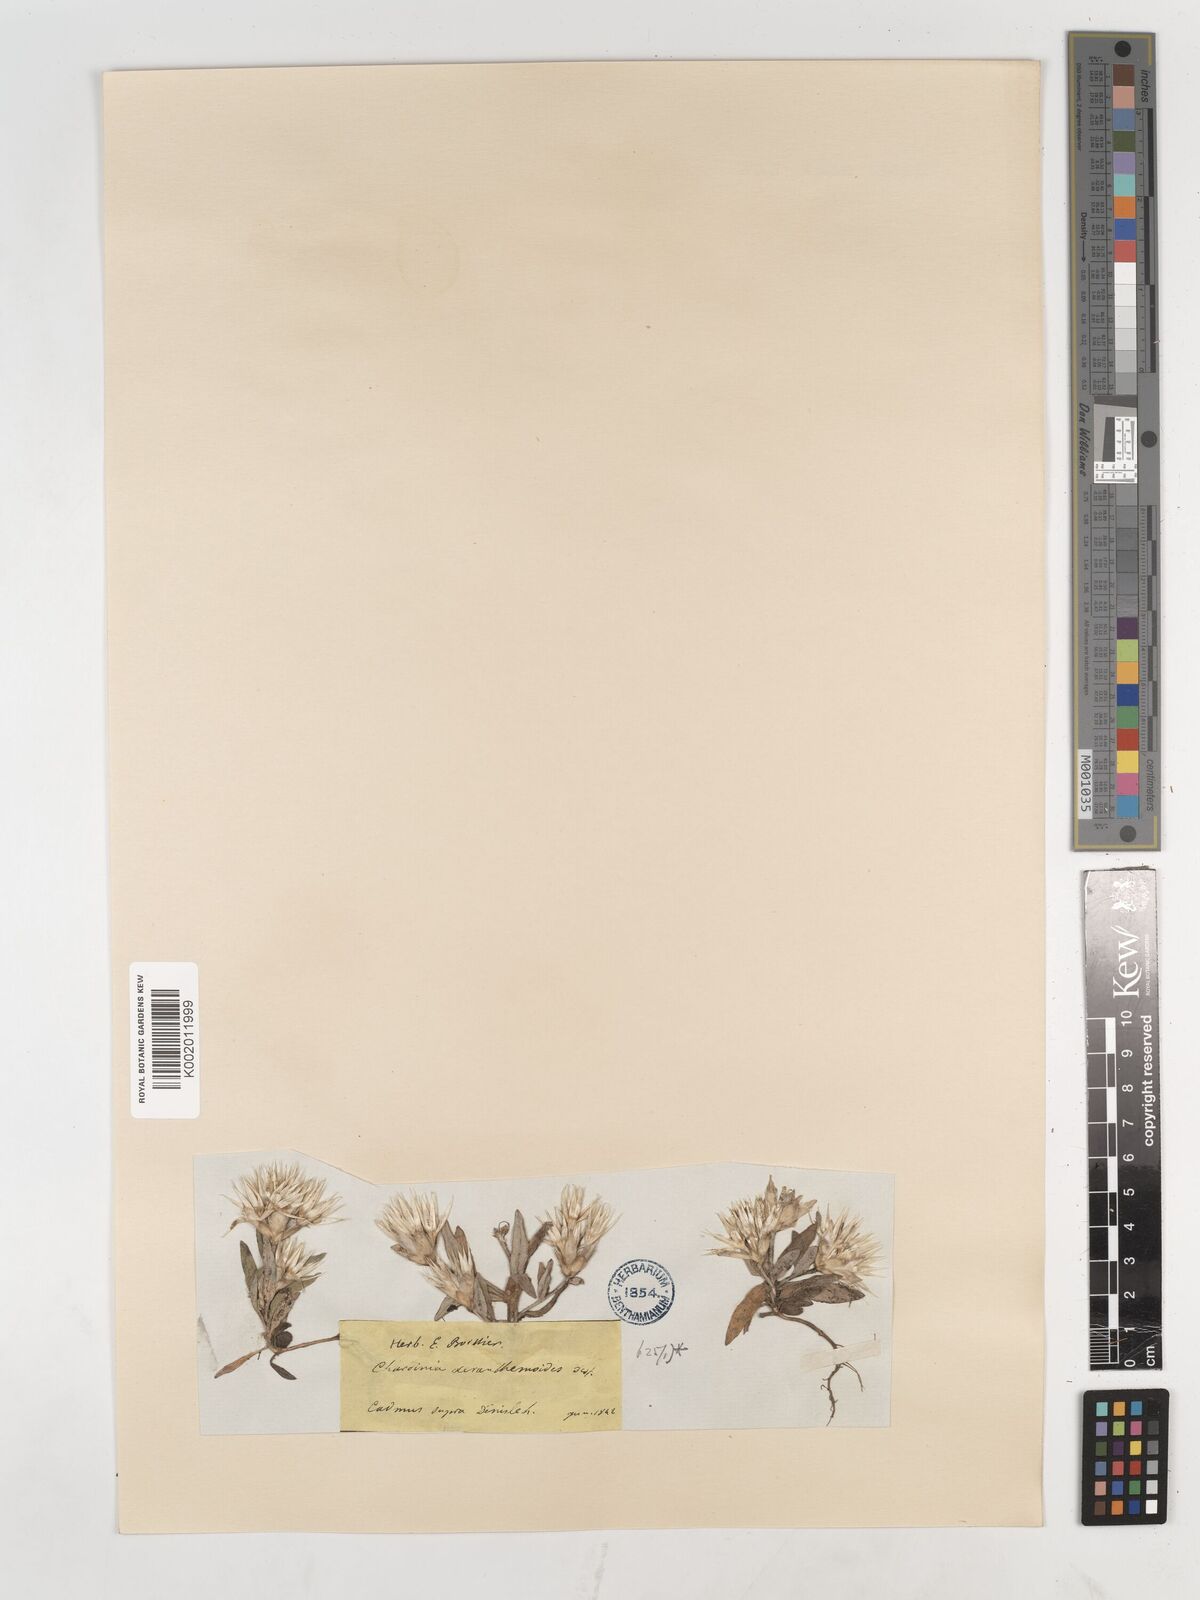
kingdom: Plantae
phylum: Tracheophyta
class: Magnoliopsida
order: Asterales
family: Asteraceae
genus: Chardinia
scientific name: Chardinia orientalis
